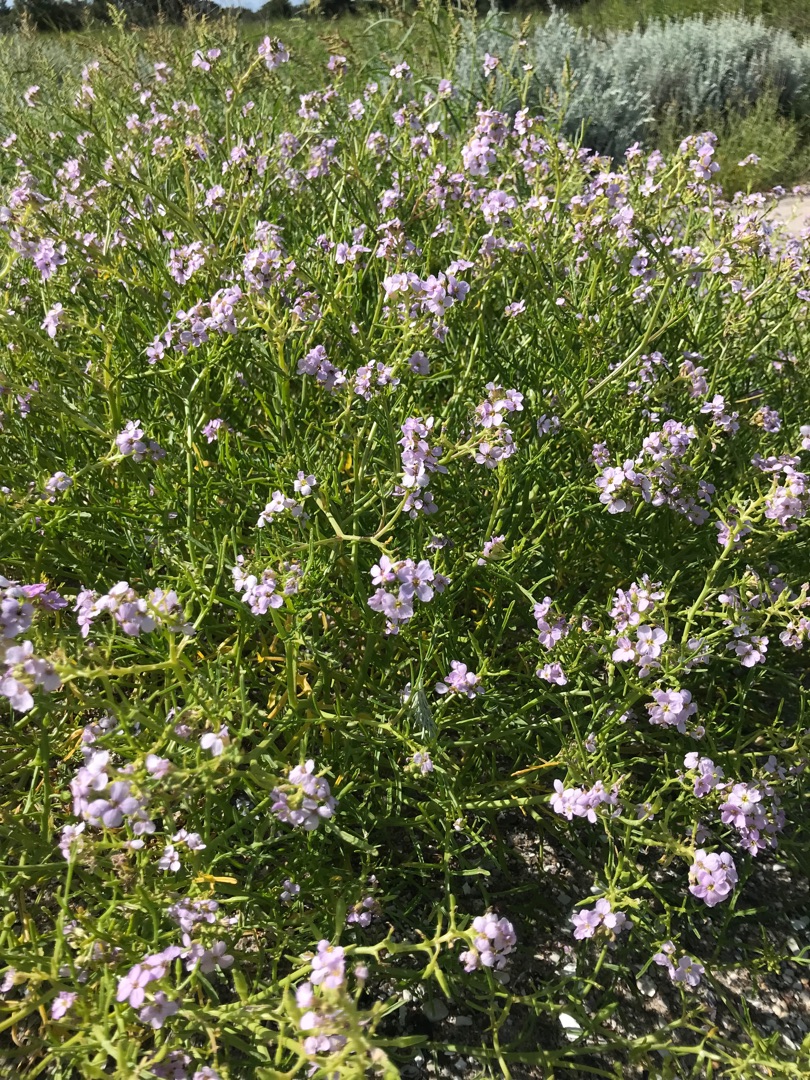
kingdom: Plantae
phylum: Tracheophyta
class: Magnoliopsida
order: Brassicales
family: Brassicaceae
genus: Cakile
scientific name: Cakile maritima
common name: Strandsennep
